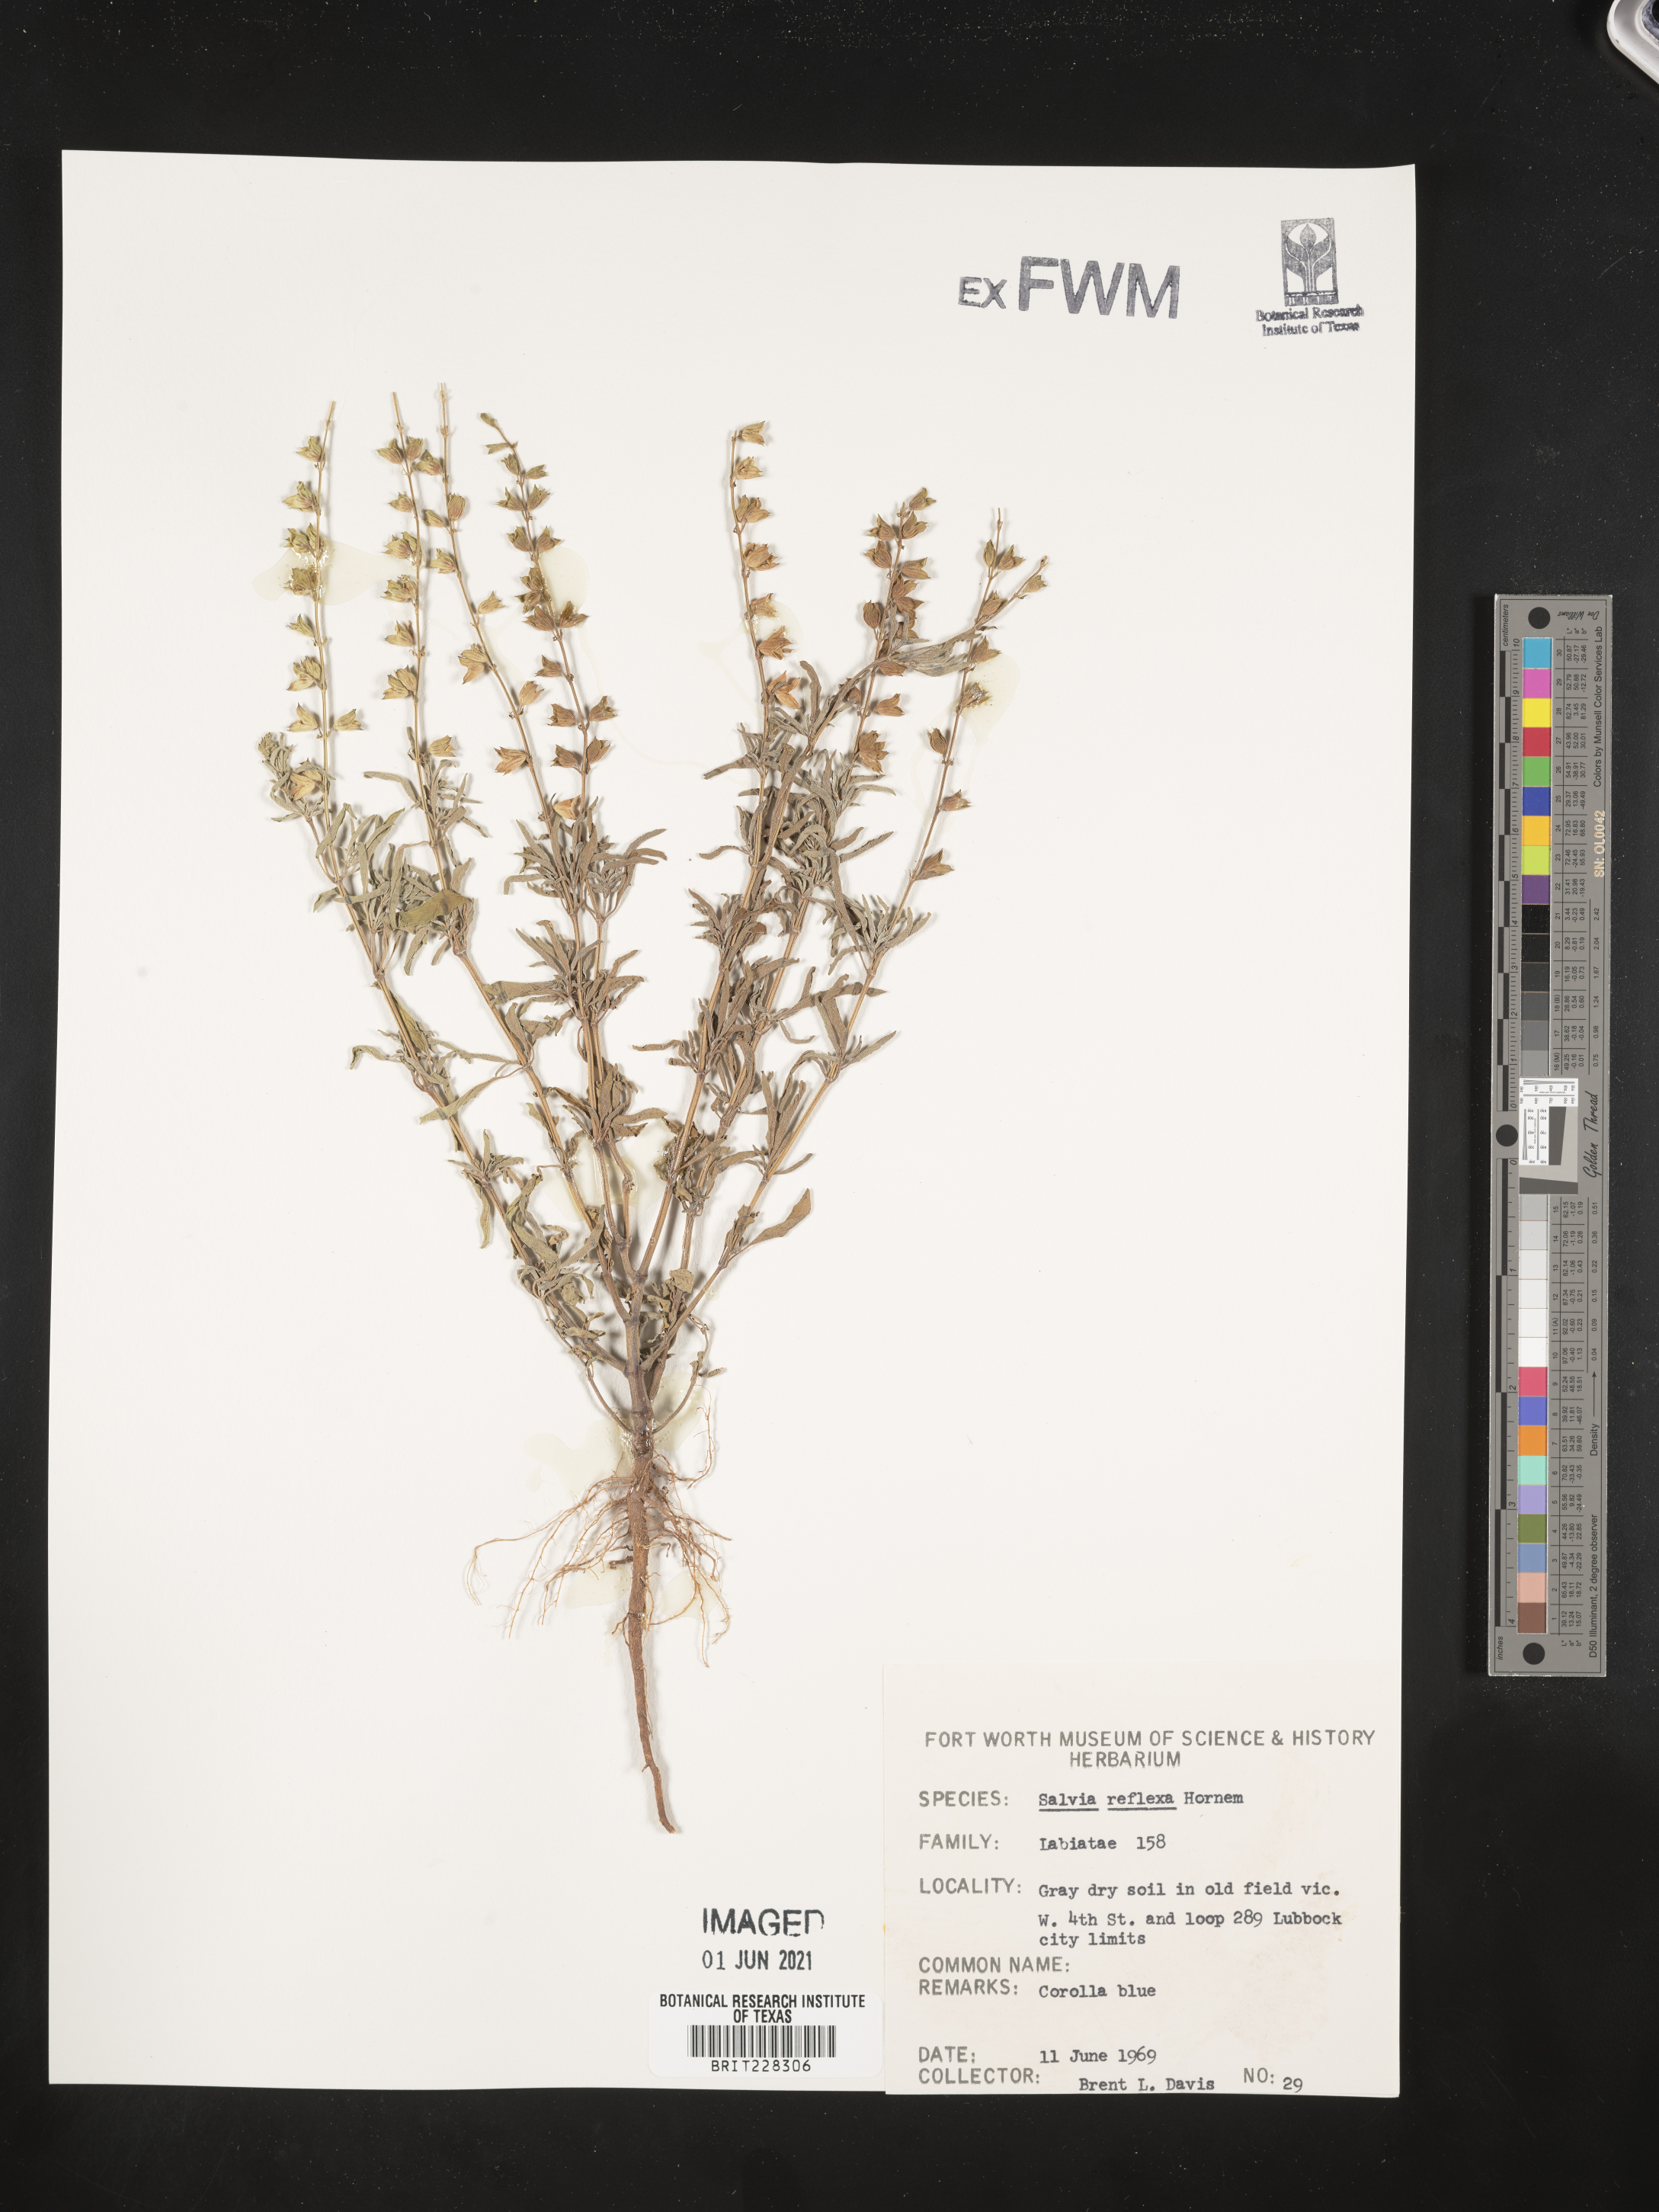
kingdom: Plantae
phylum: Tracheophyta
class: Magnoliopsida
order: Lamiales
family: Lamiaceae
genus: Salvia
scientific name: Salvia reflexa
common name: Mintweed
